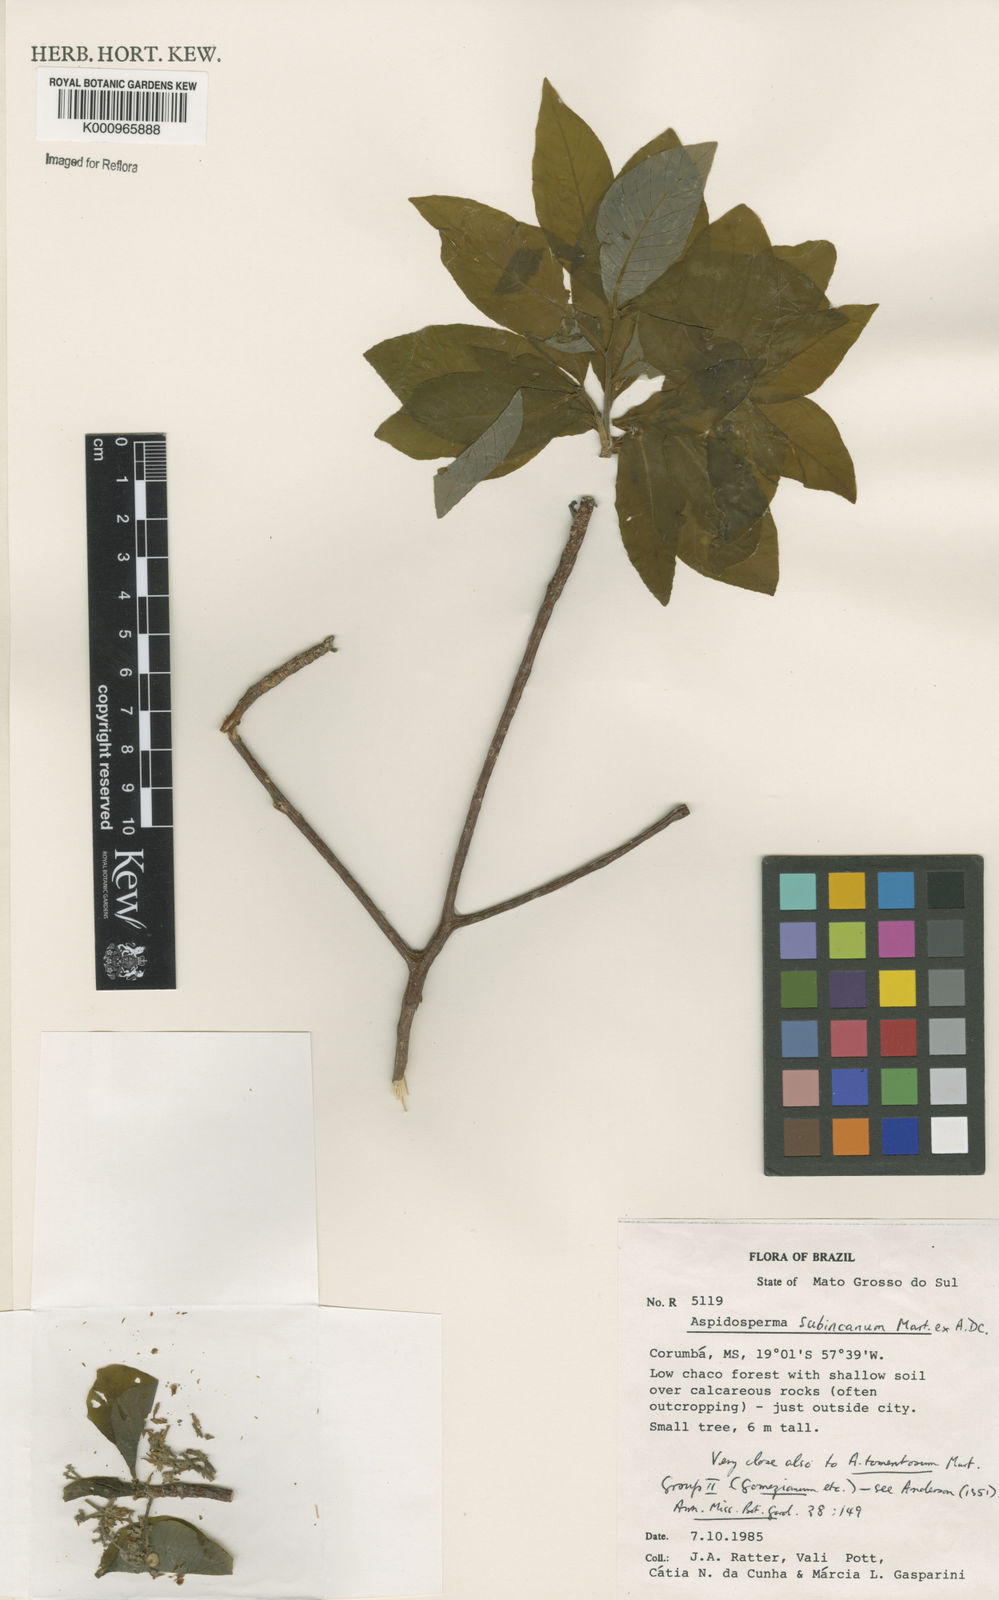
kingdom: Plantae
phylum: Tracheophyta
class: Magnoliopsida
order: Gentianales
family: Apocynaceae
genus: Aspidosperma
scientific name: Aspidosperma subincanum
